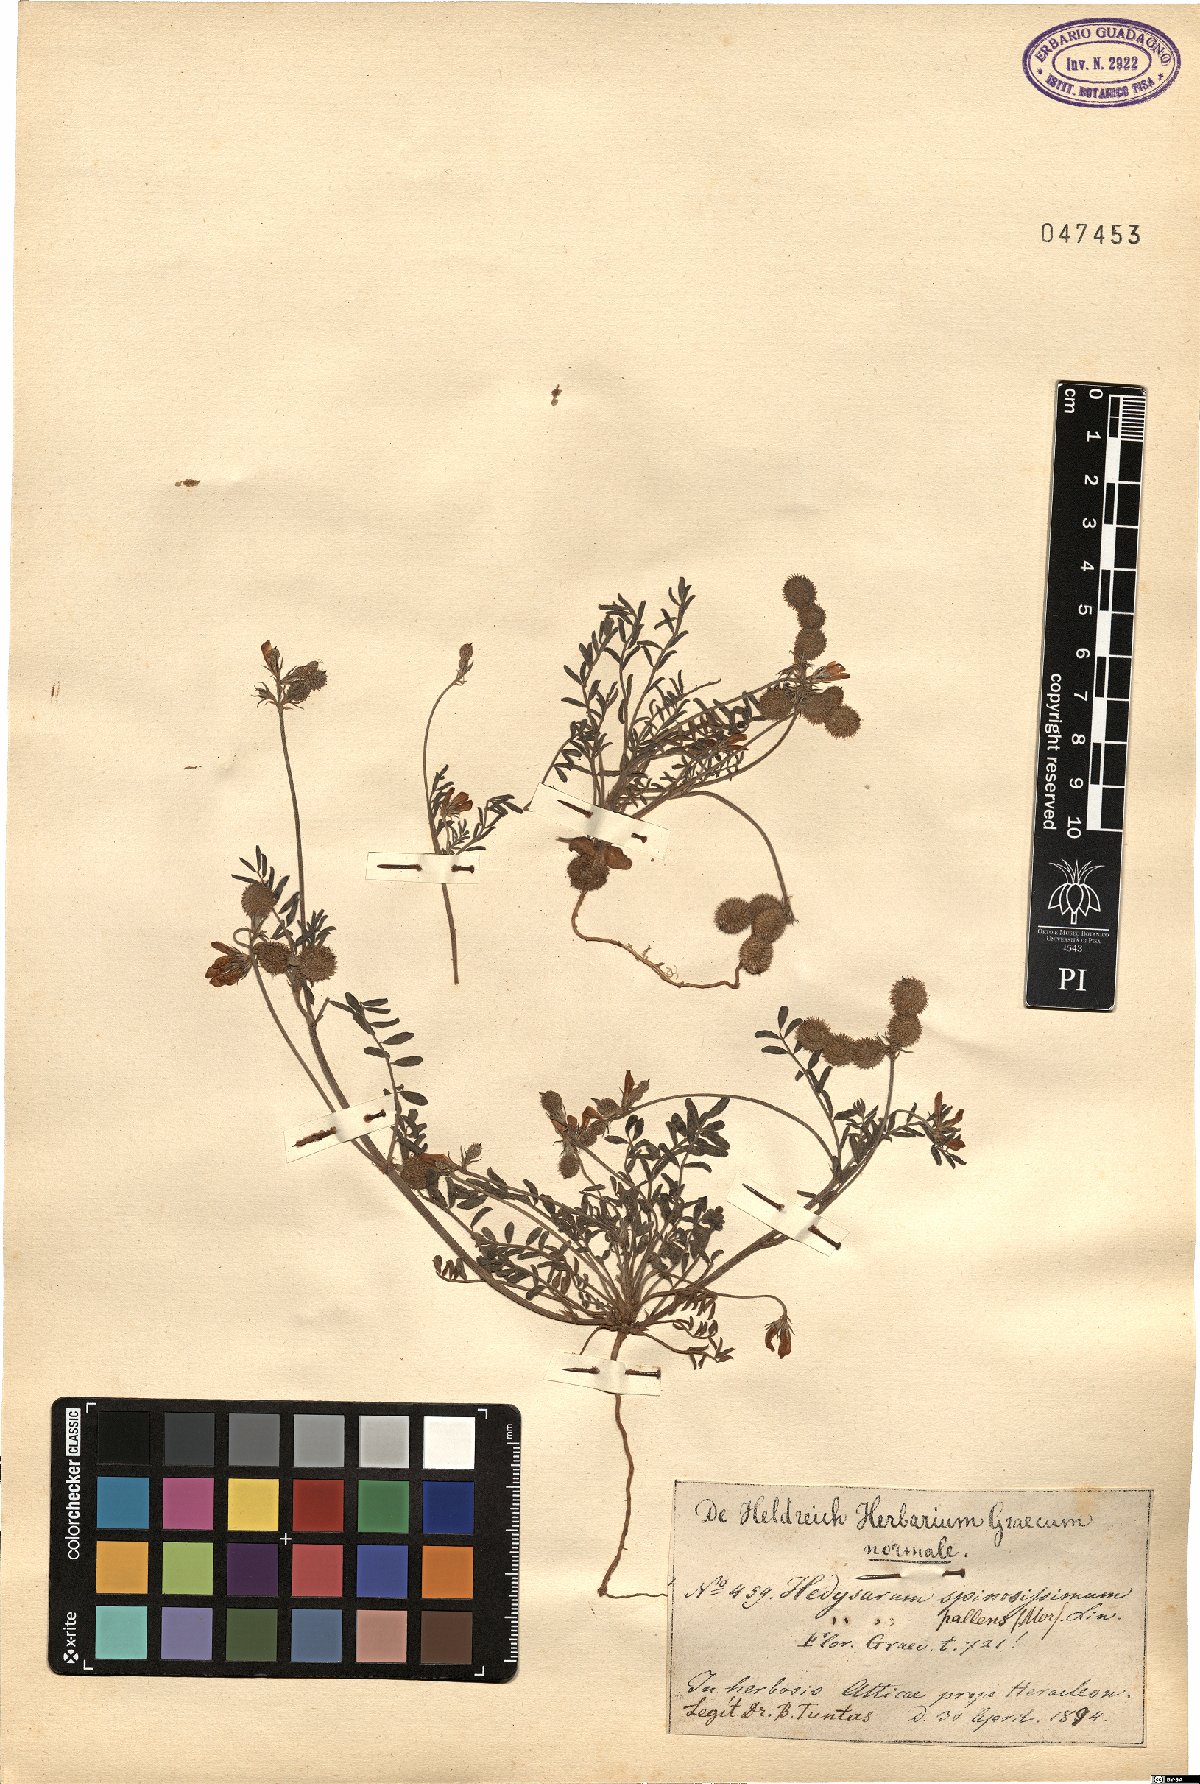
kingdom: Plantae
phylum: Tracheophyta
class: Magnoliopsida
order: Fabales
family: Fabaceae
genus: Sulla
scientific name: Sulla spinosissima
